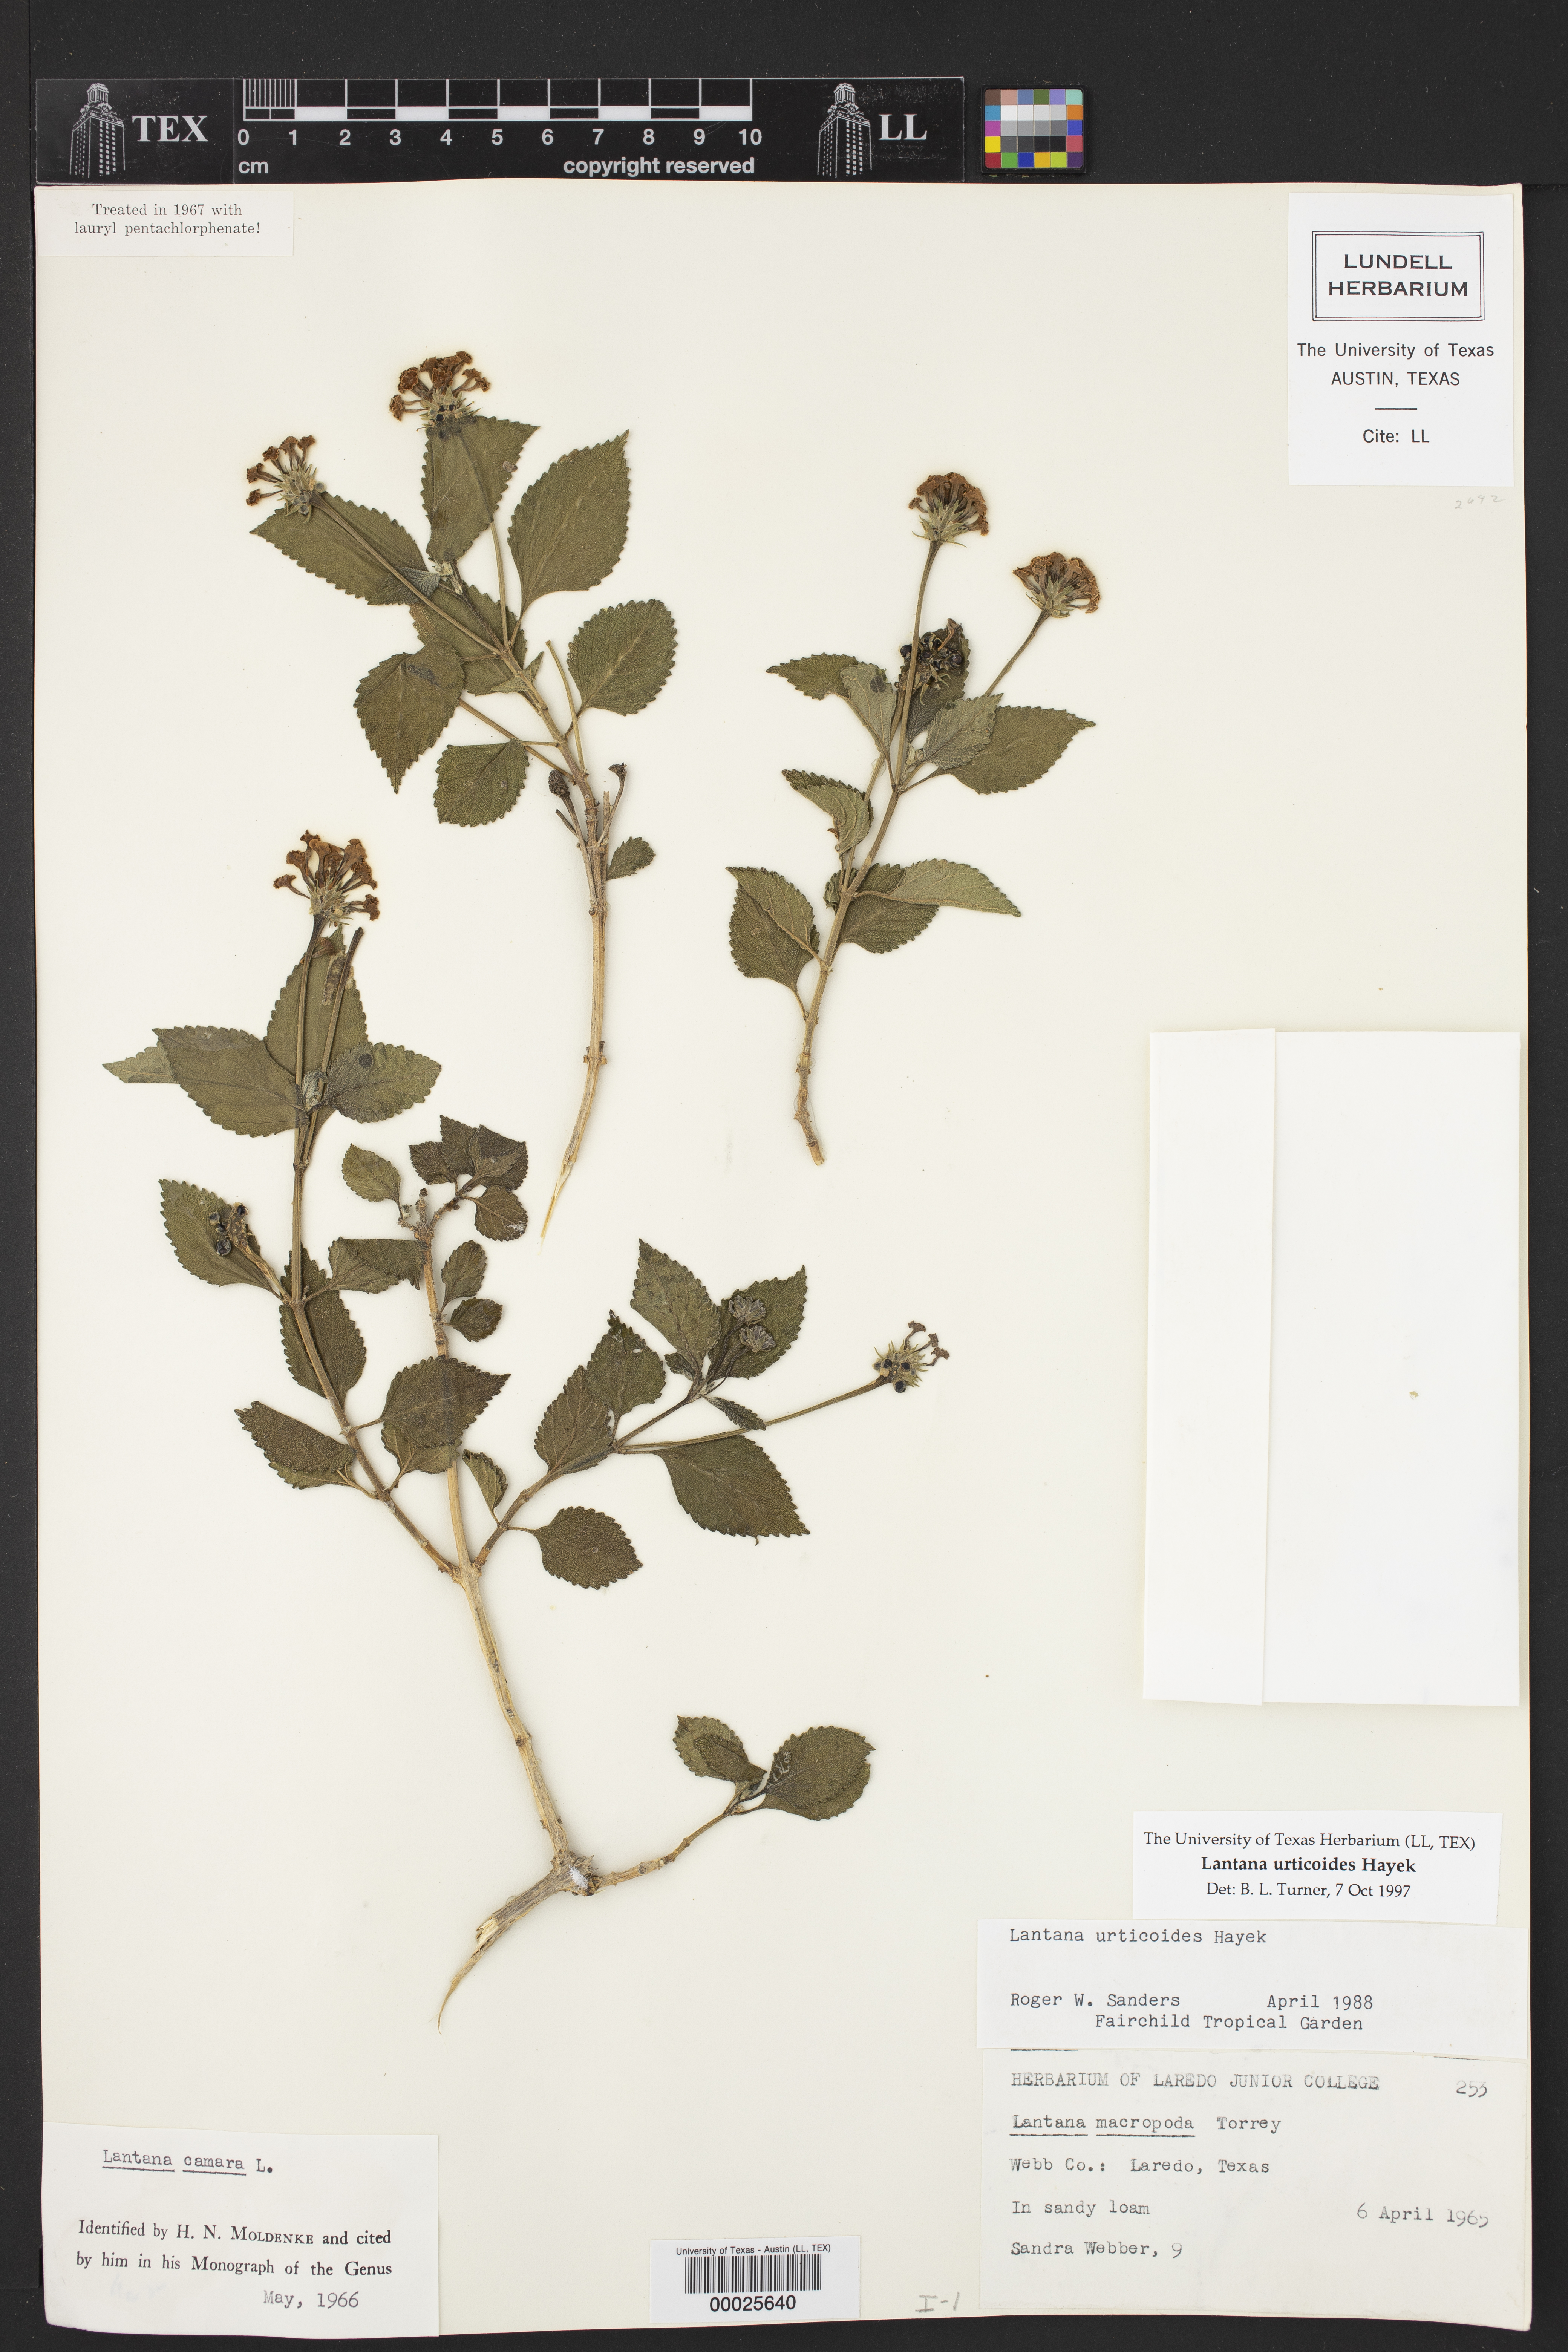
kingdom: Plantae
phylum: Tracheophyta
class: Magnoliopsida
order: Lamiales
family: Verbenaceae
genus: Lantana
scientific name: Lantana urticoides
